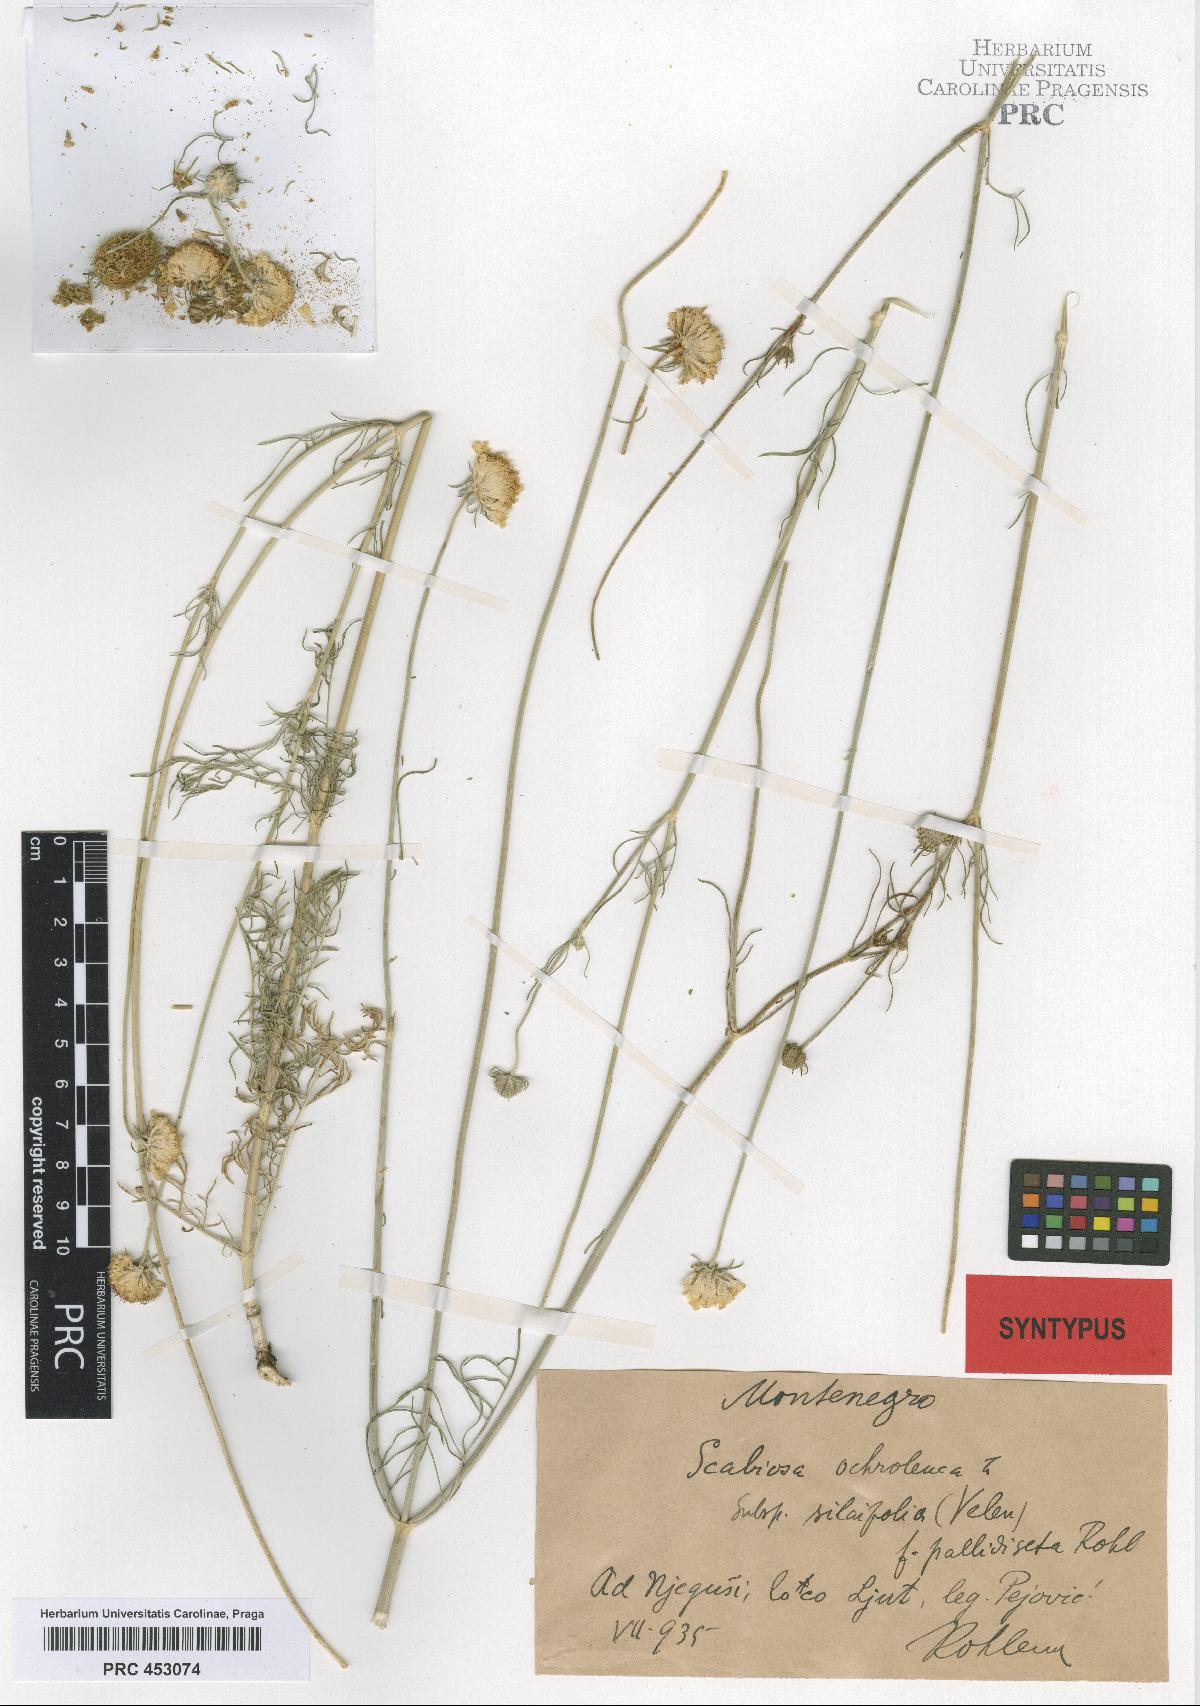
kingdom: Plantae
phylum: Tracheophyta
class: Magnoliopsida
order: Dipsacales
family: Caprifoliaceae
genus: Scabiosa
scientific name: Scabiosa ochroleuca
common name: Cream pincushions
